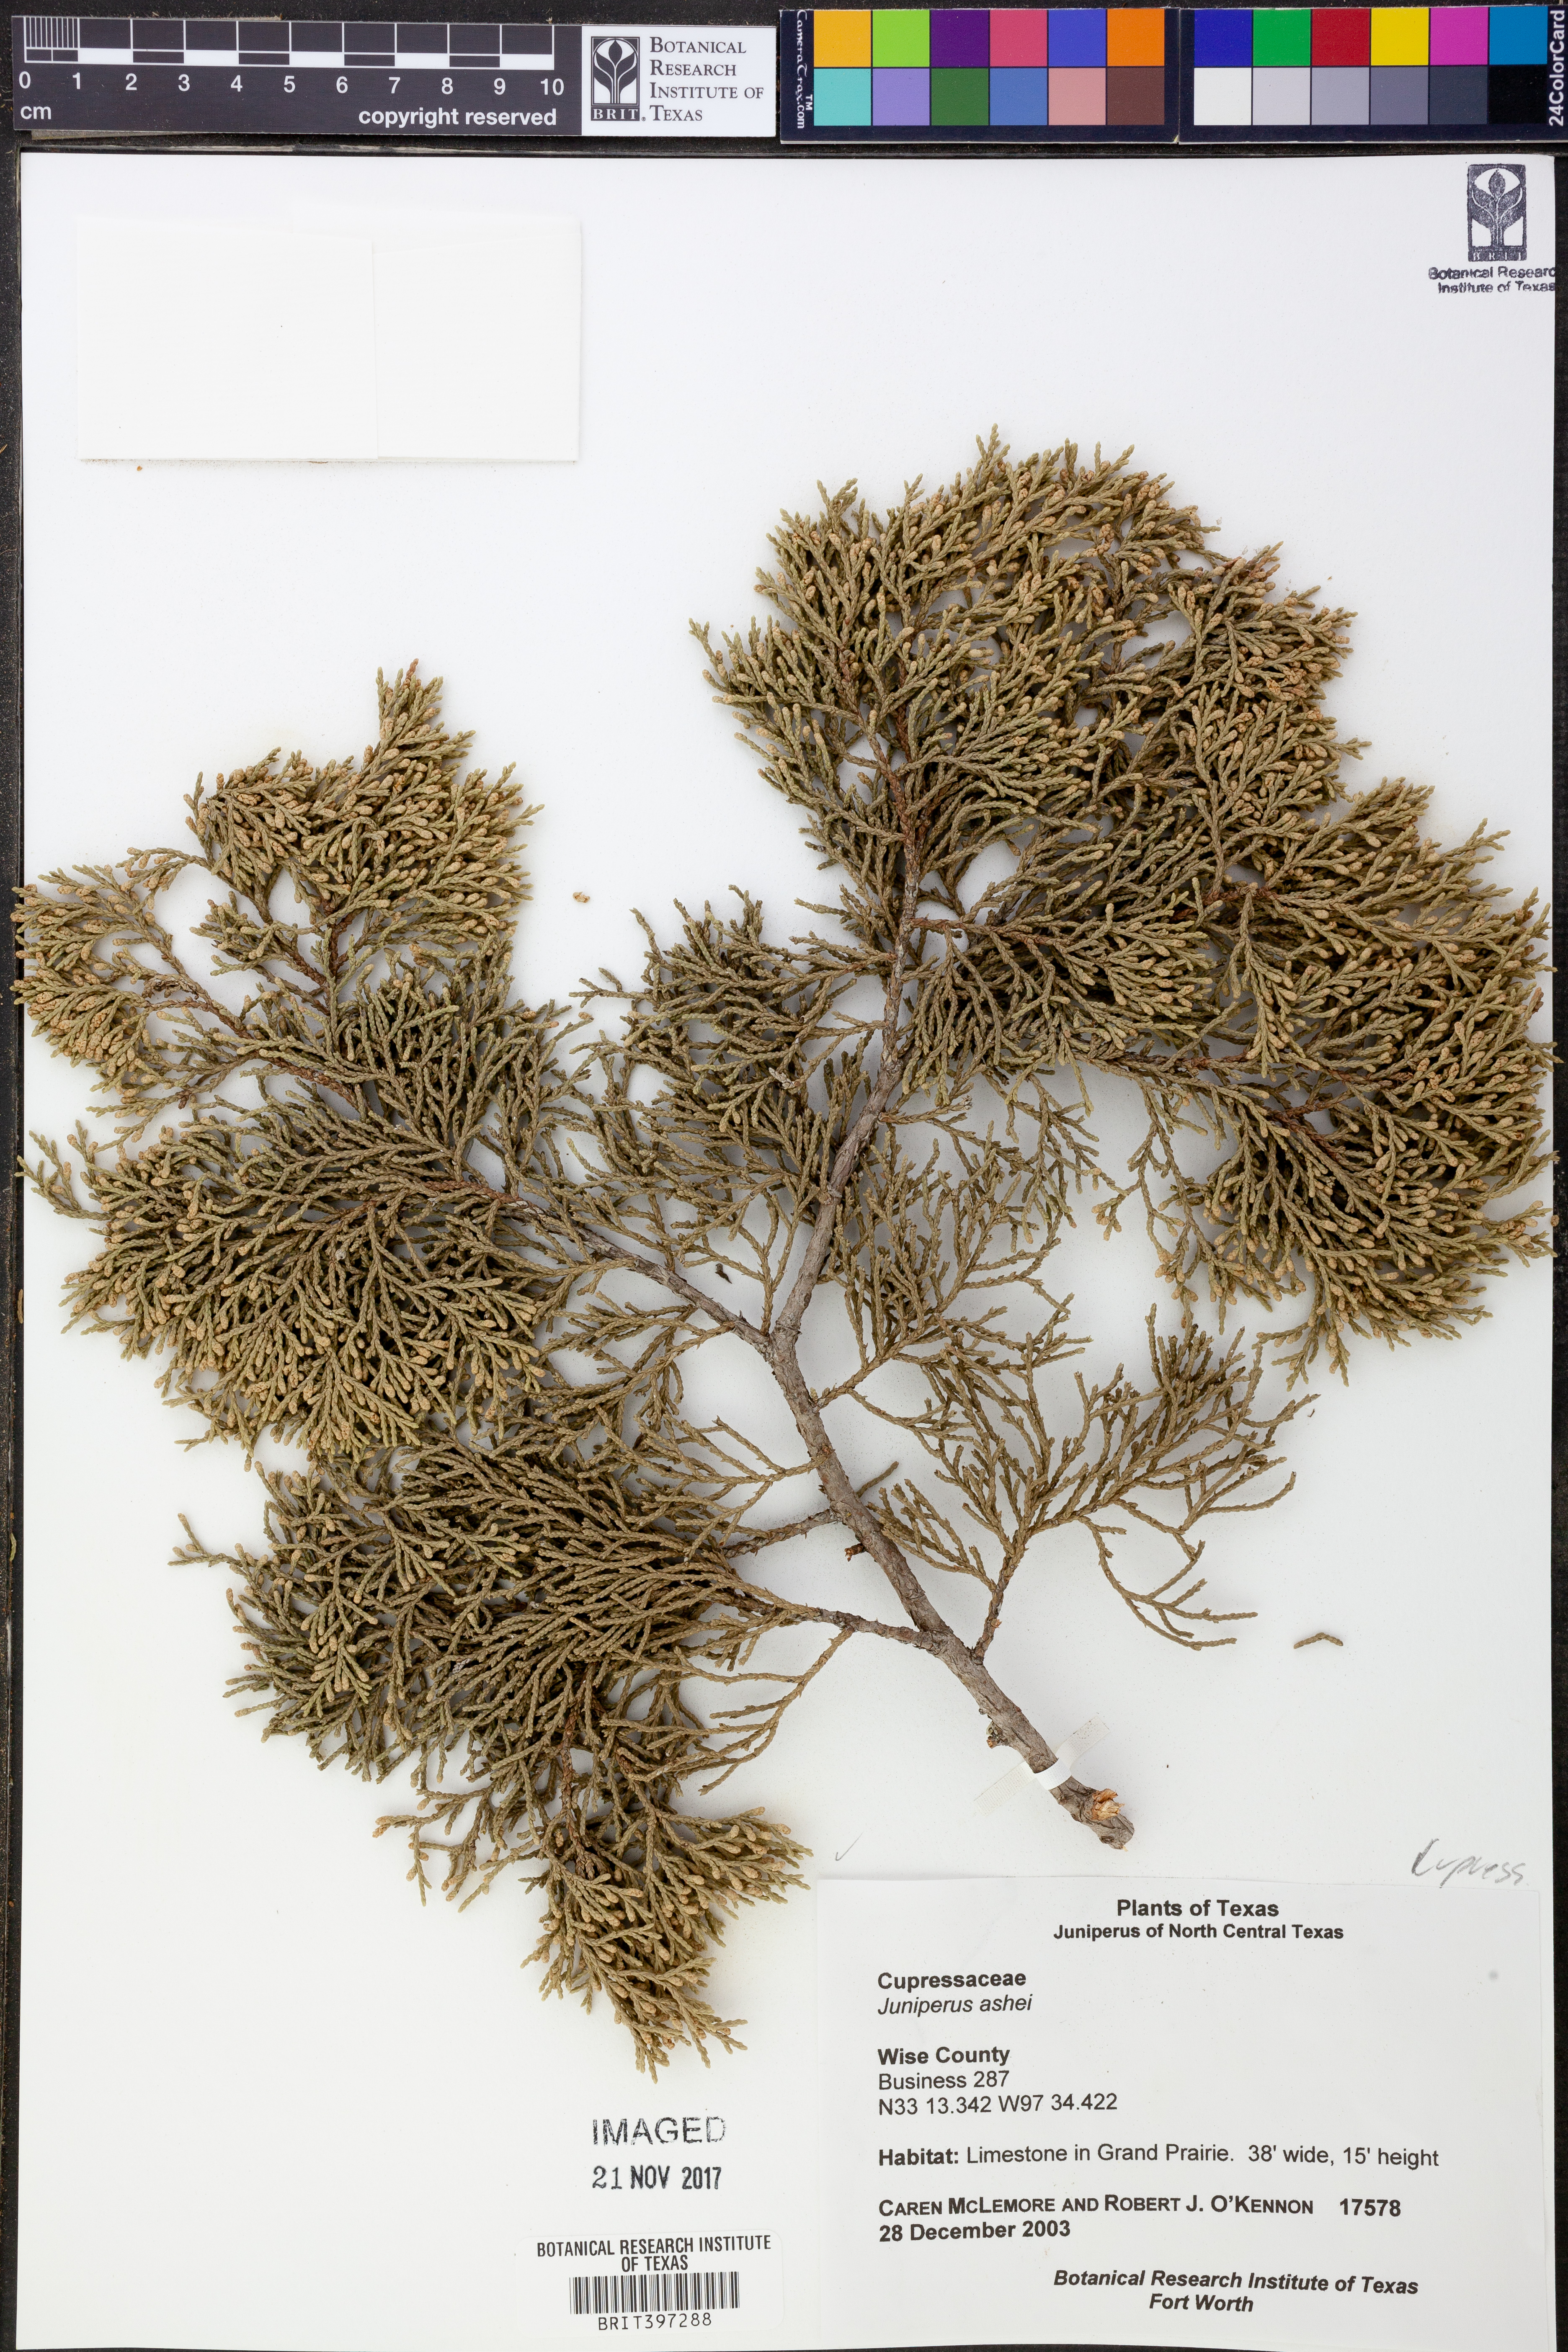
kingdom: Plantae
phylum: Tracheophyta
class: Pinopsida
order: Pinales
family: Cupressaceae
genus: Juniperus
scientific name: Juniperus ashei
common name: Mexican juniper
